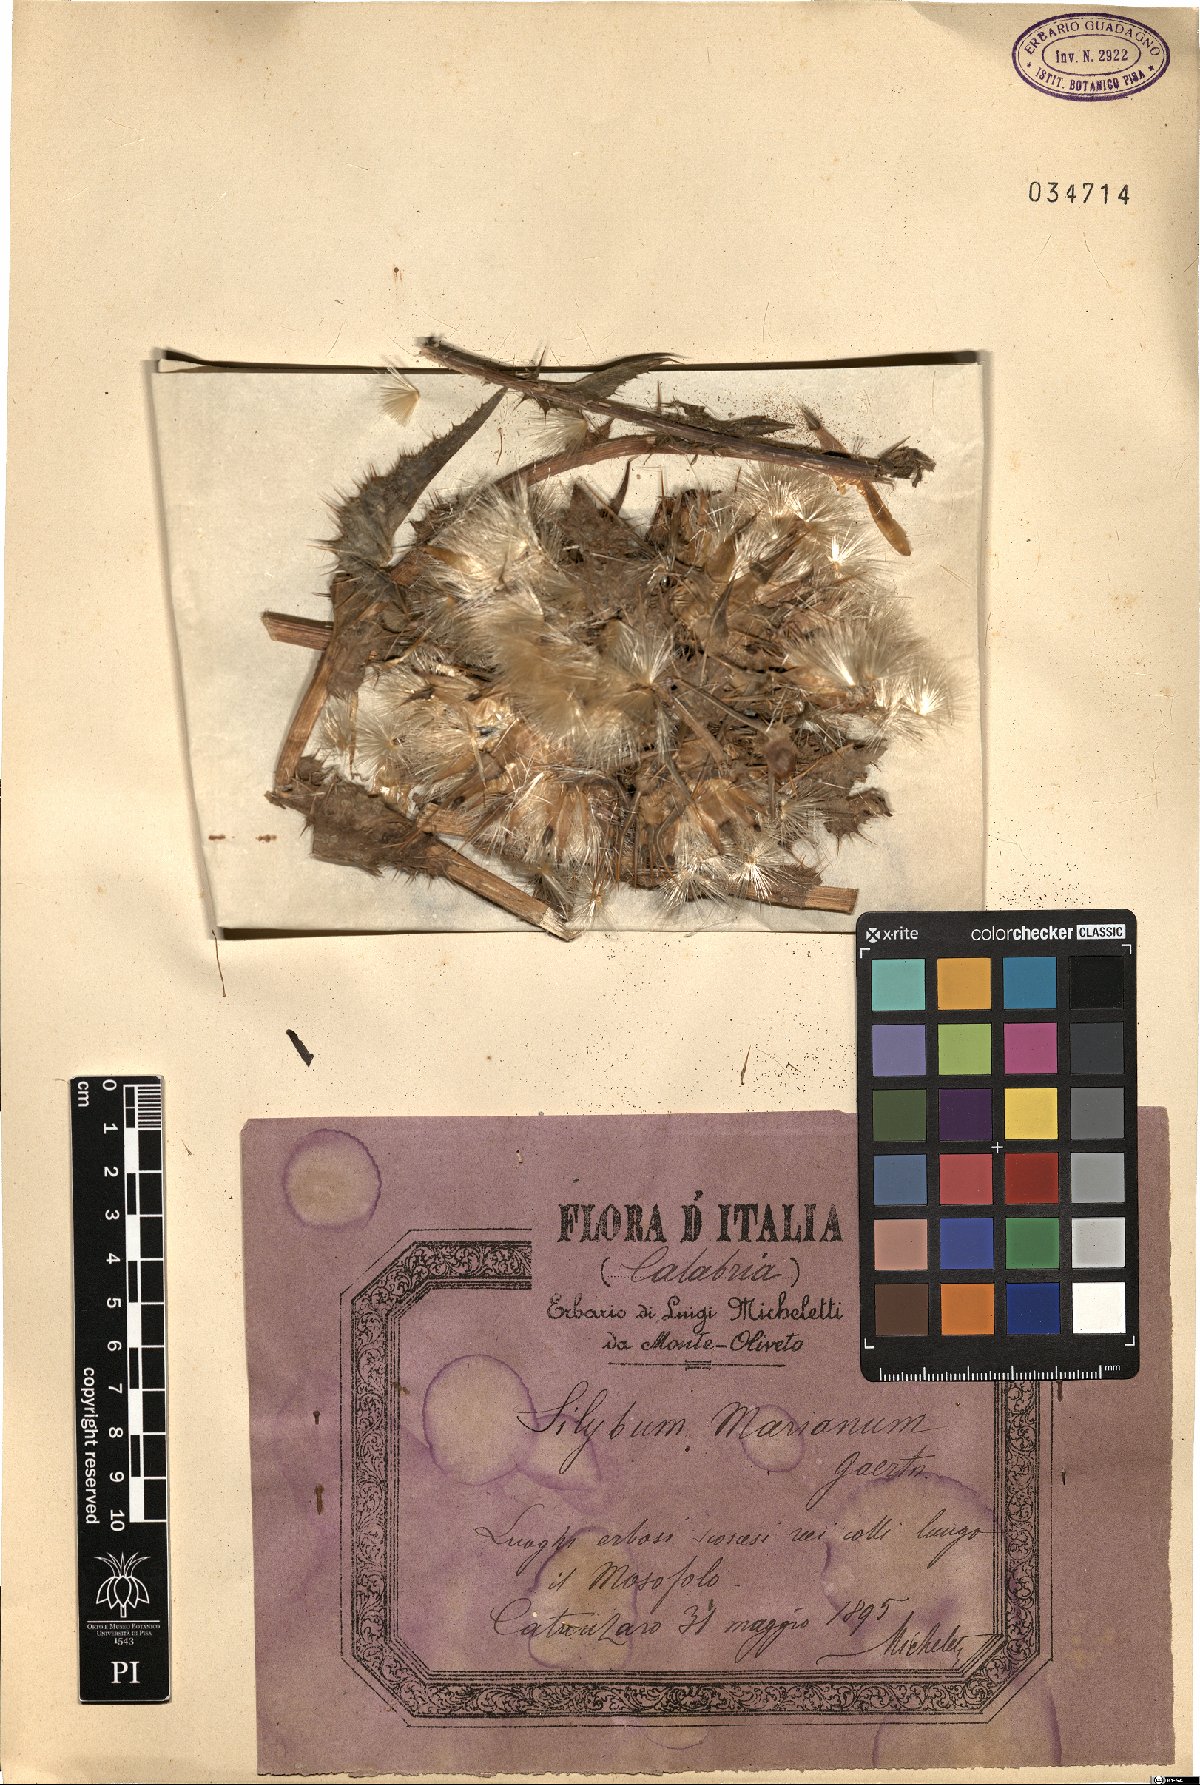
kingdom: Plantae
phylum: Tracheophyta
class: Magnoliopsida
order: Asterales
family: Asteraceae
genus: Silybum
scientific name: Silybum marianum
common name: Milk thistle
